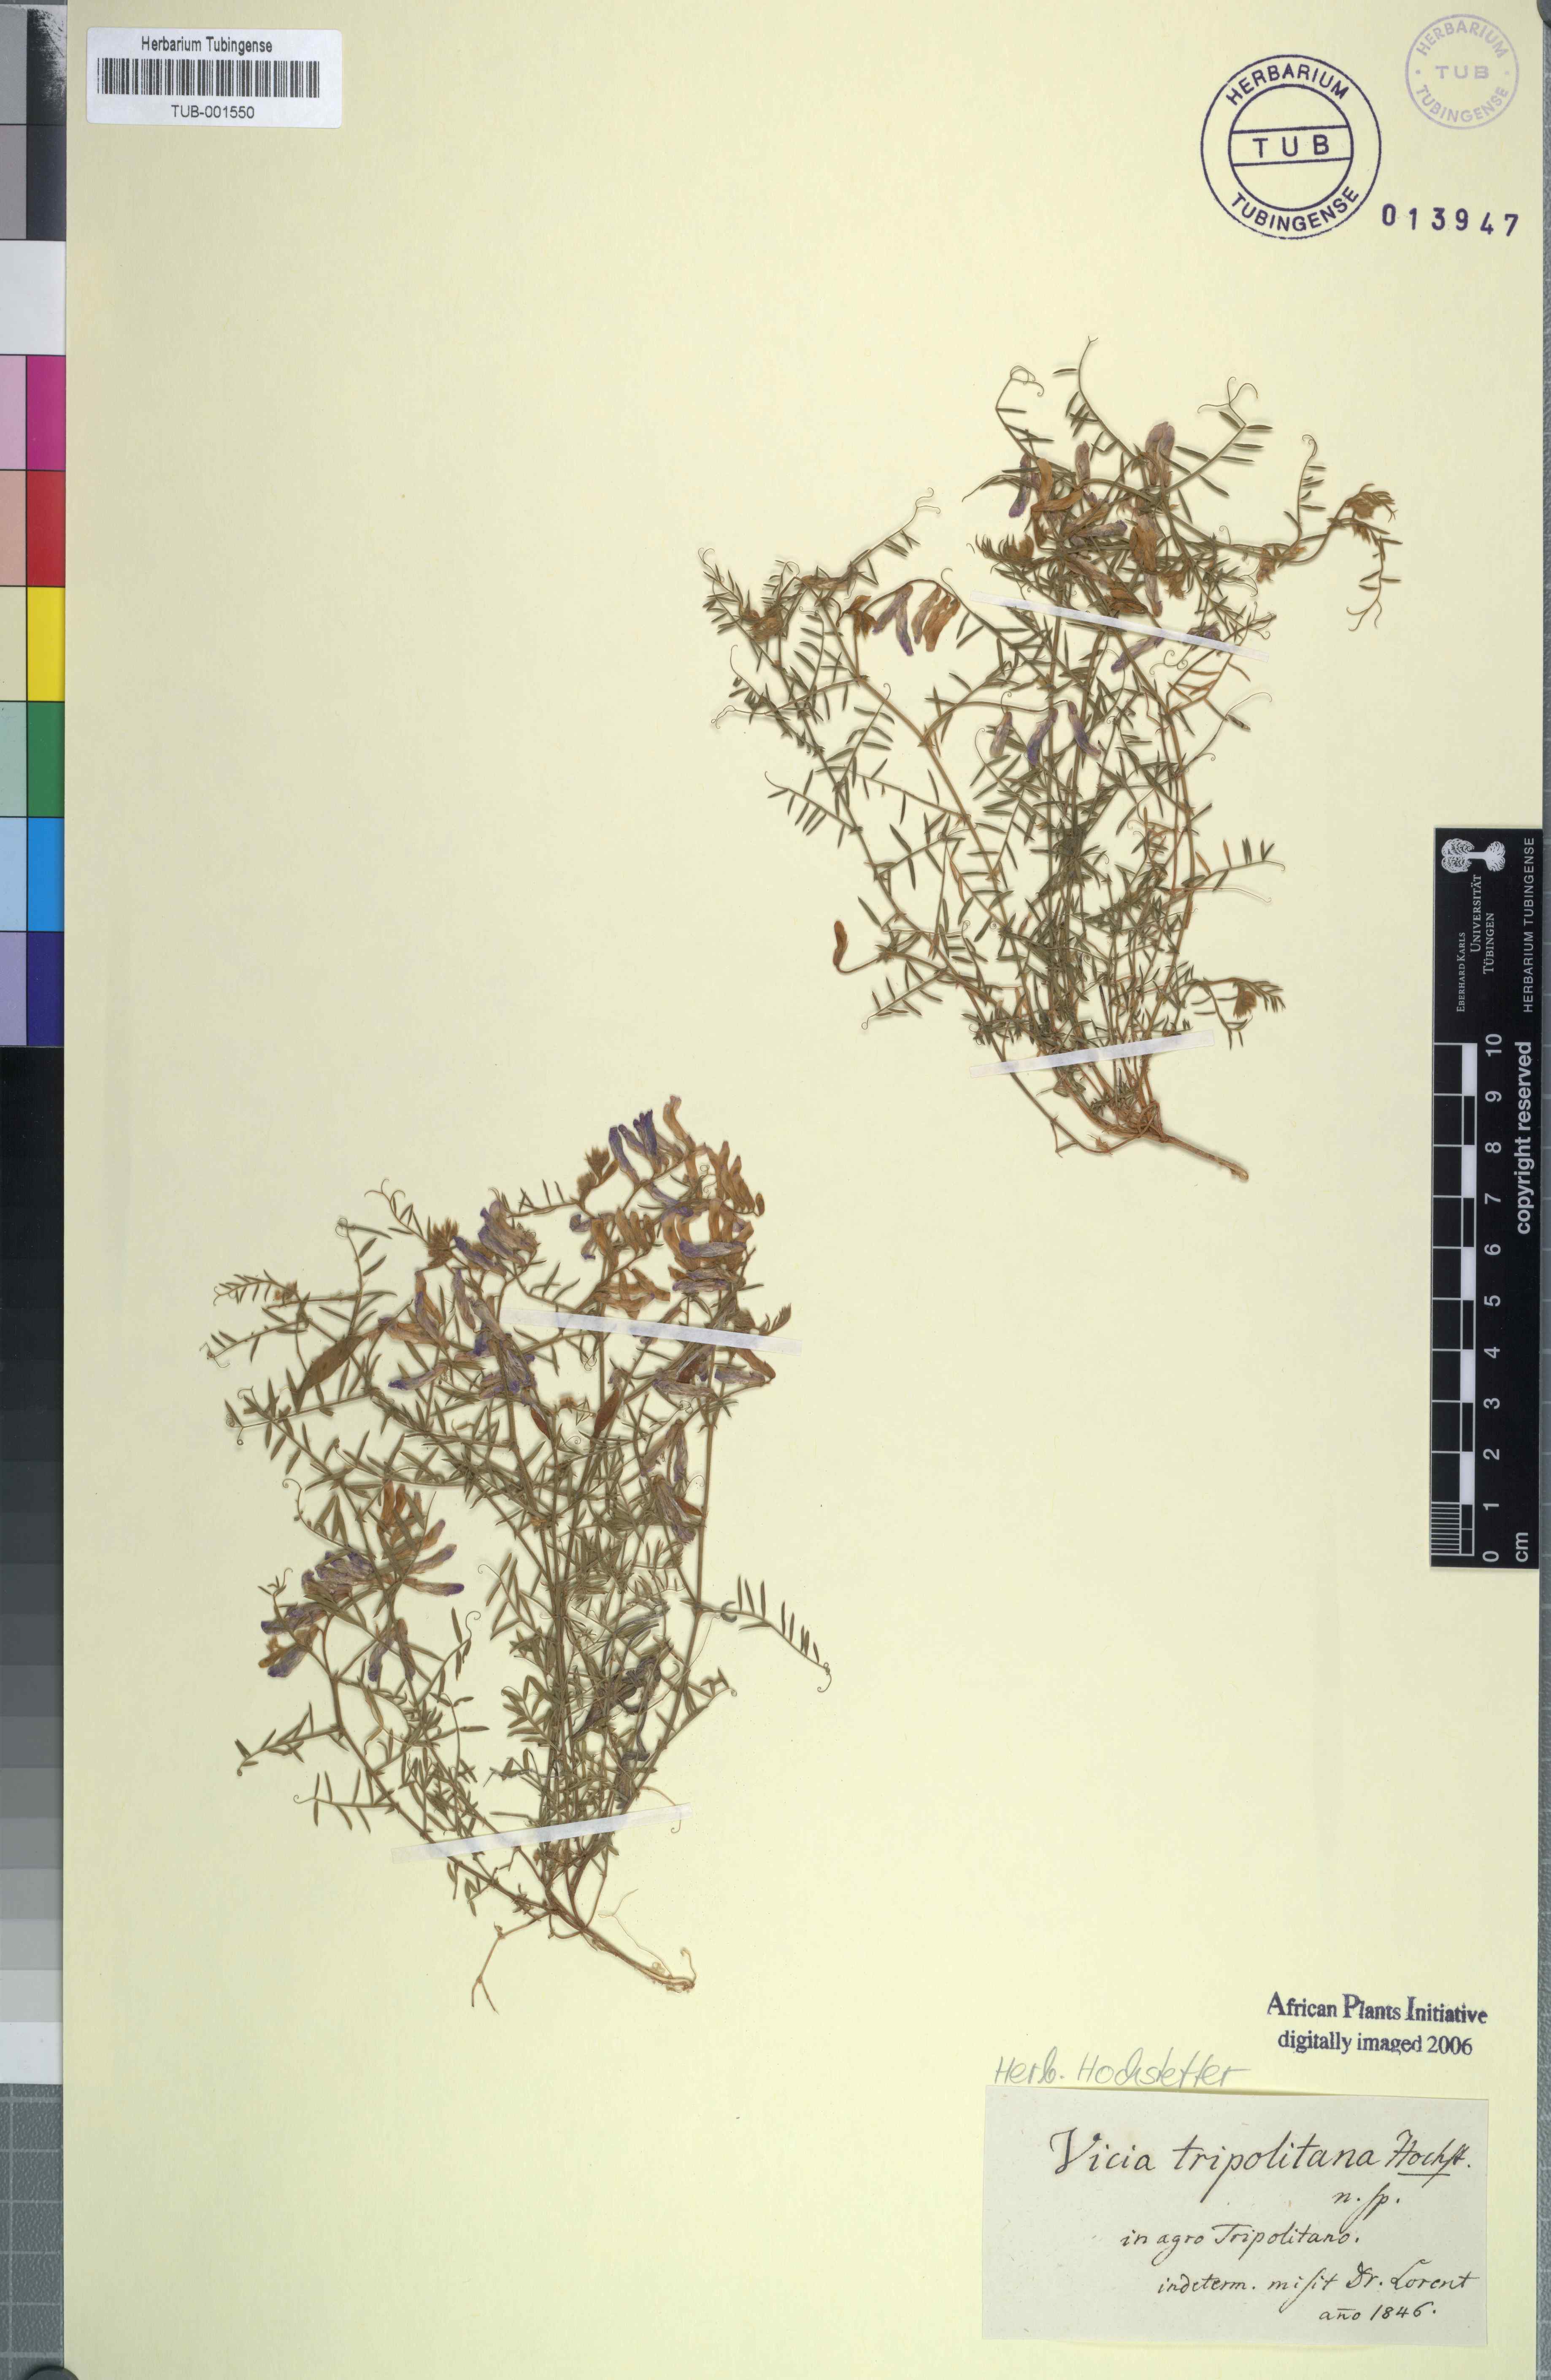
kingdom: Plantae
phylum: Tracheophyta
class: Magnoliopsida
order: Fabales
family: Fabaceae
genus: Vicia
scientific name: Vicia
